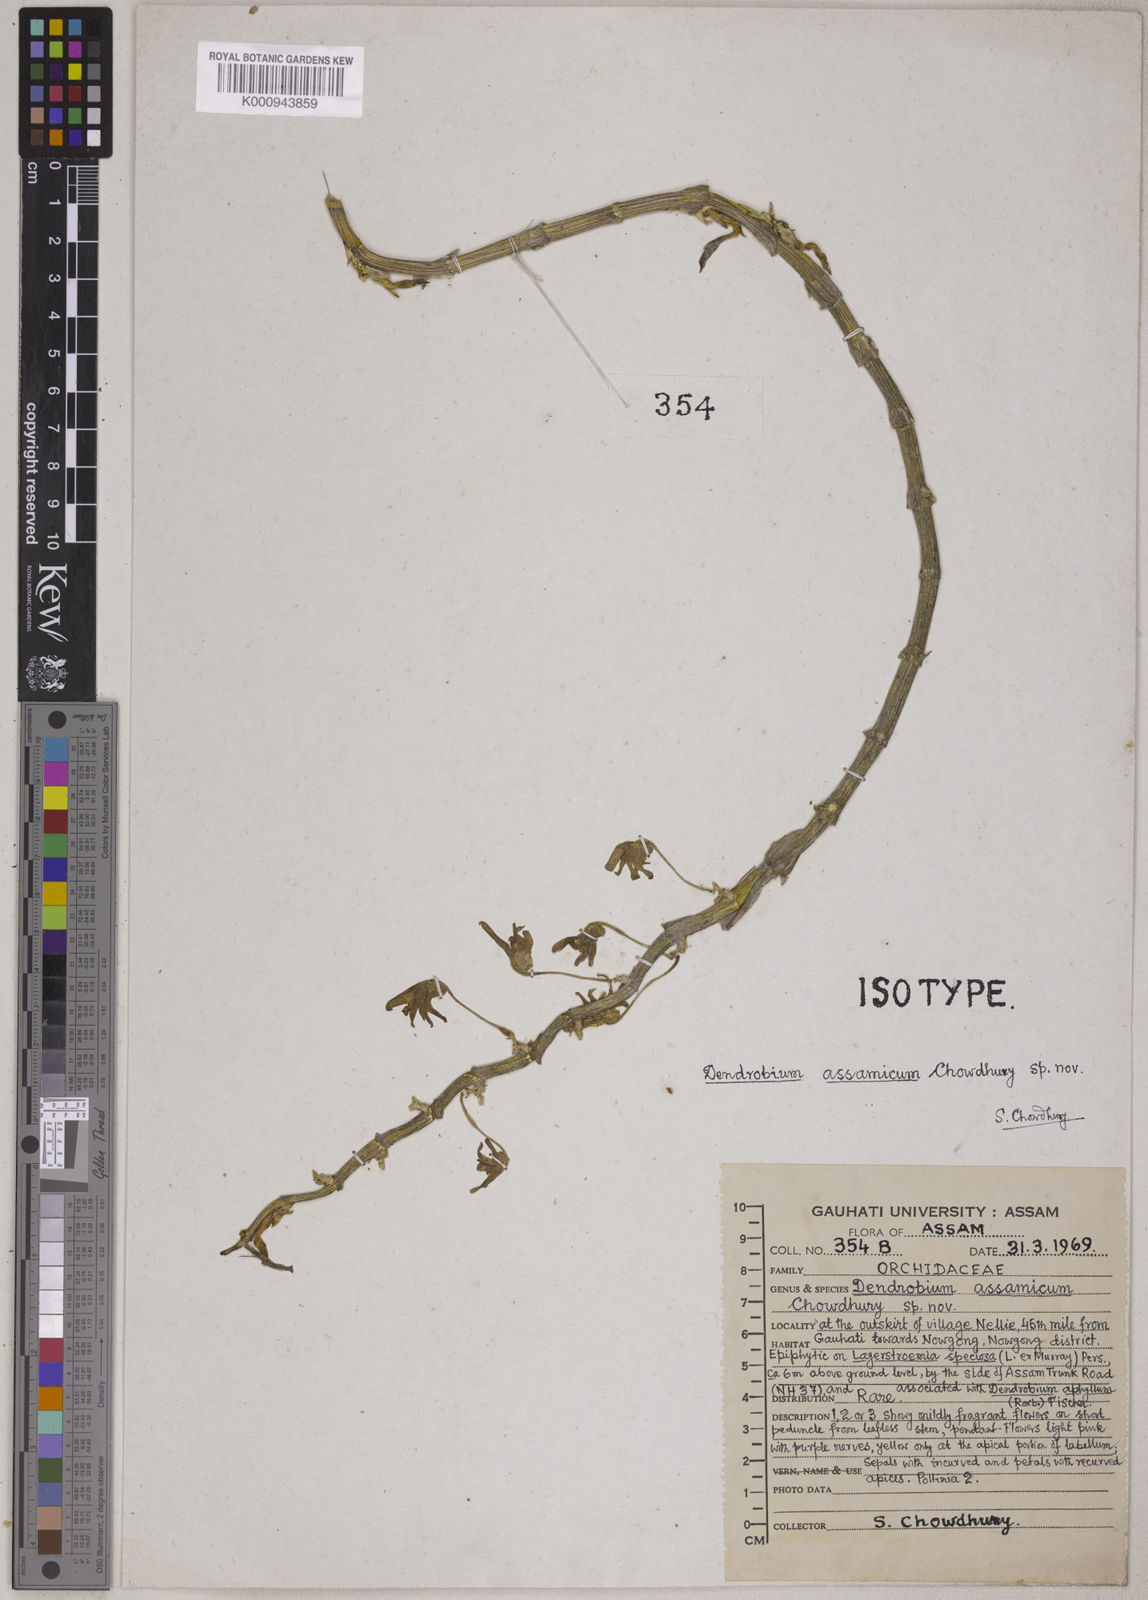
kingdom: Plantae
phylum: Tracheophyta
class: Liliopsida
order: Asparagales
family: Orchidaceae
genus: Dendrobium
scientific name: Dendrobium assamicum
